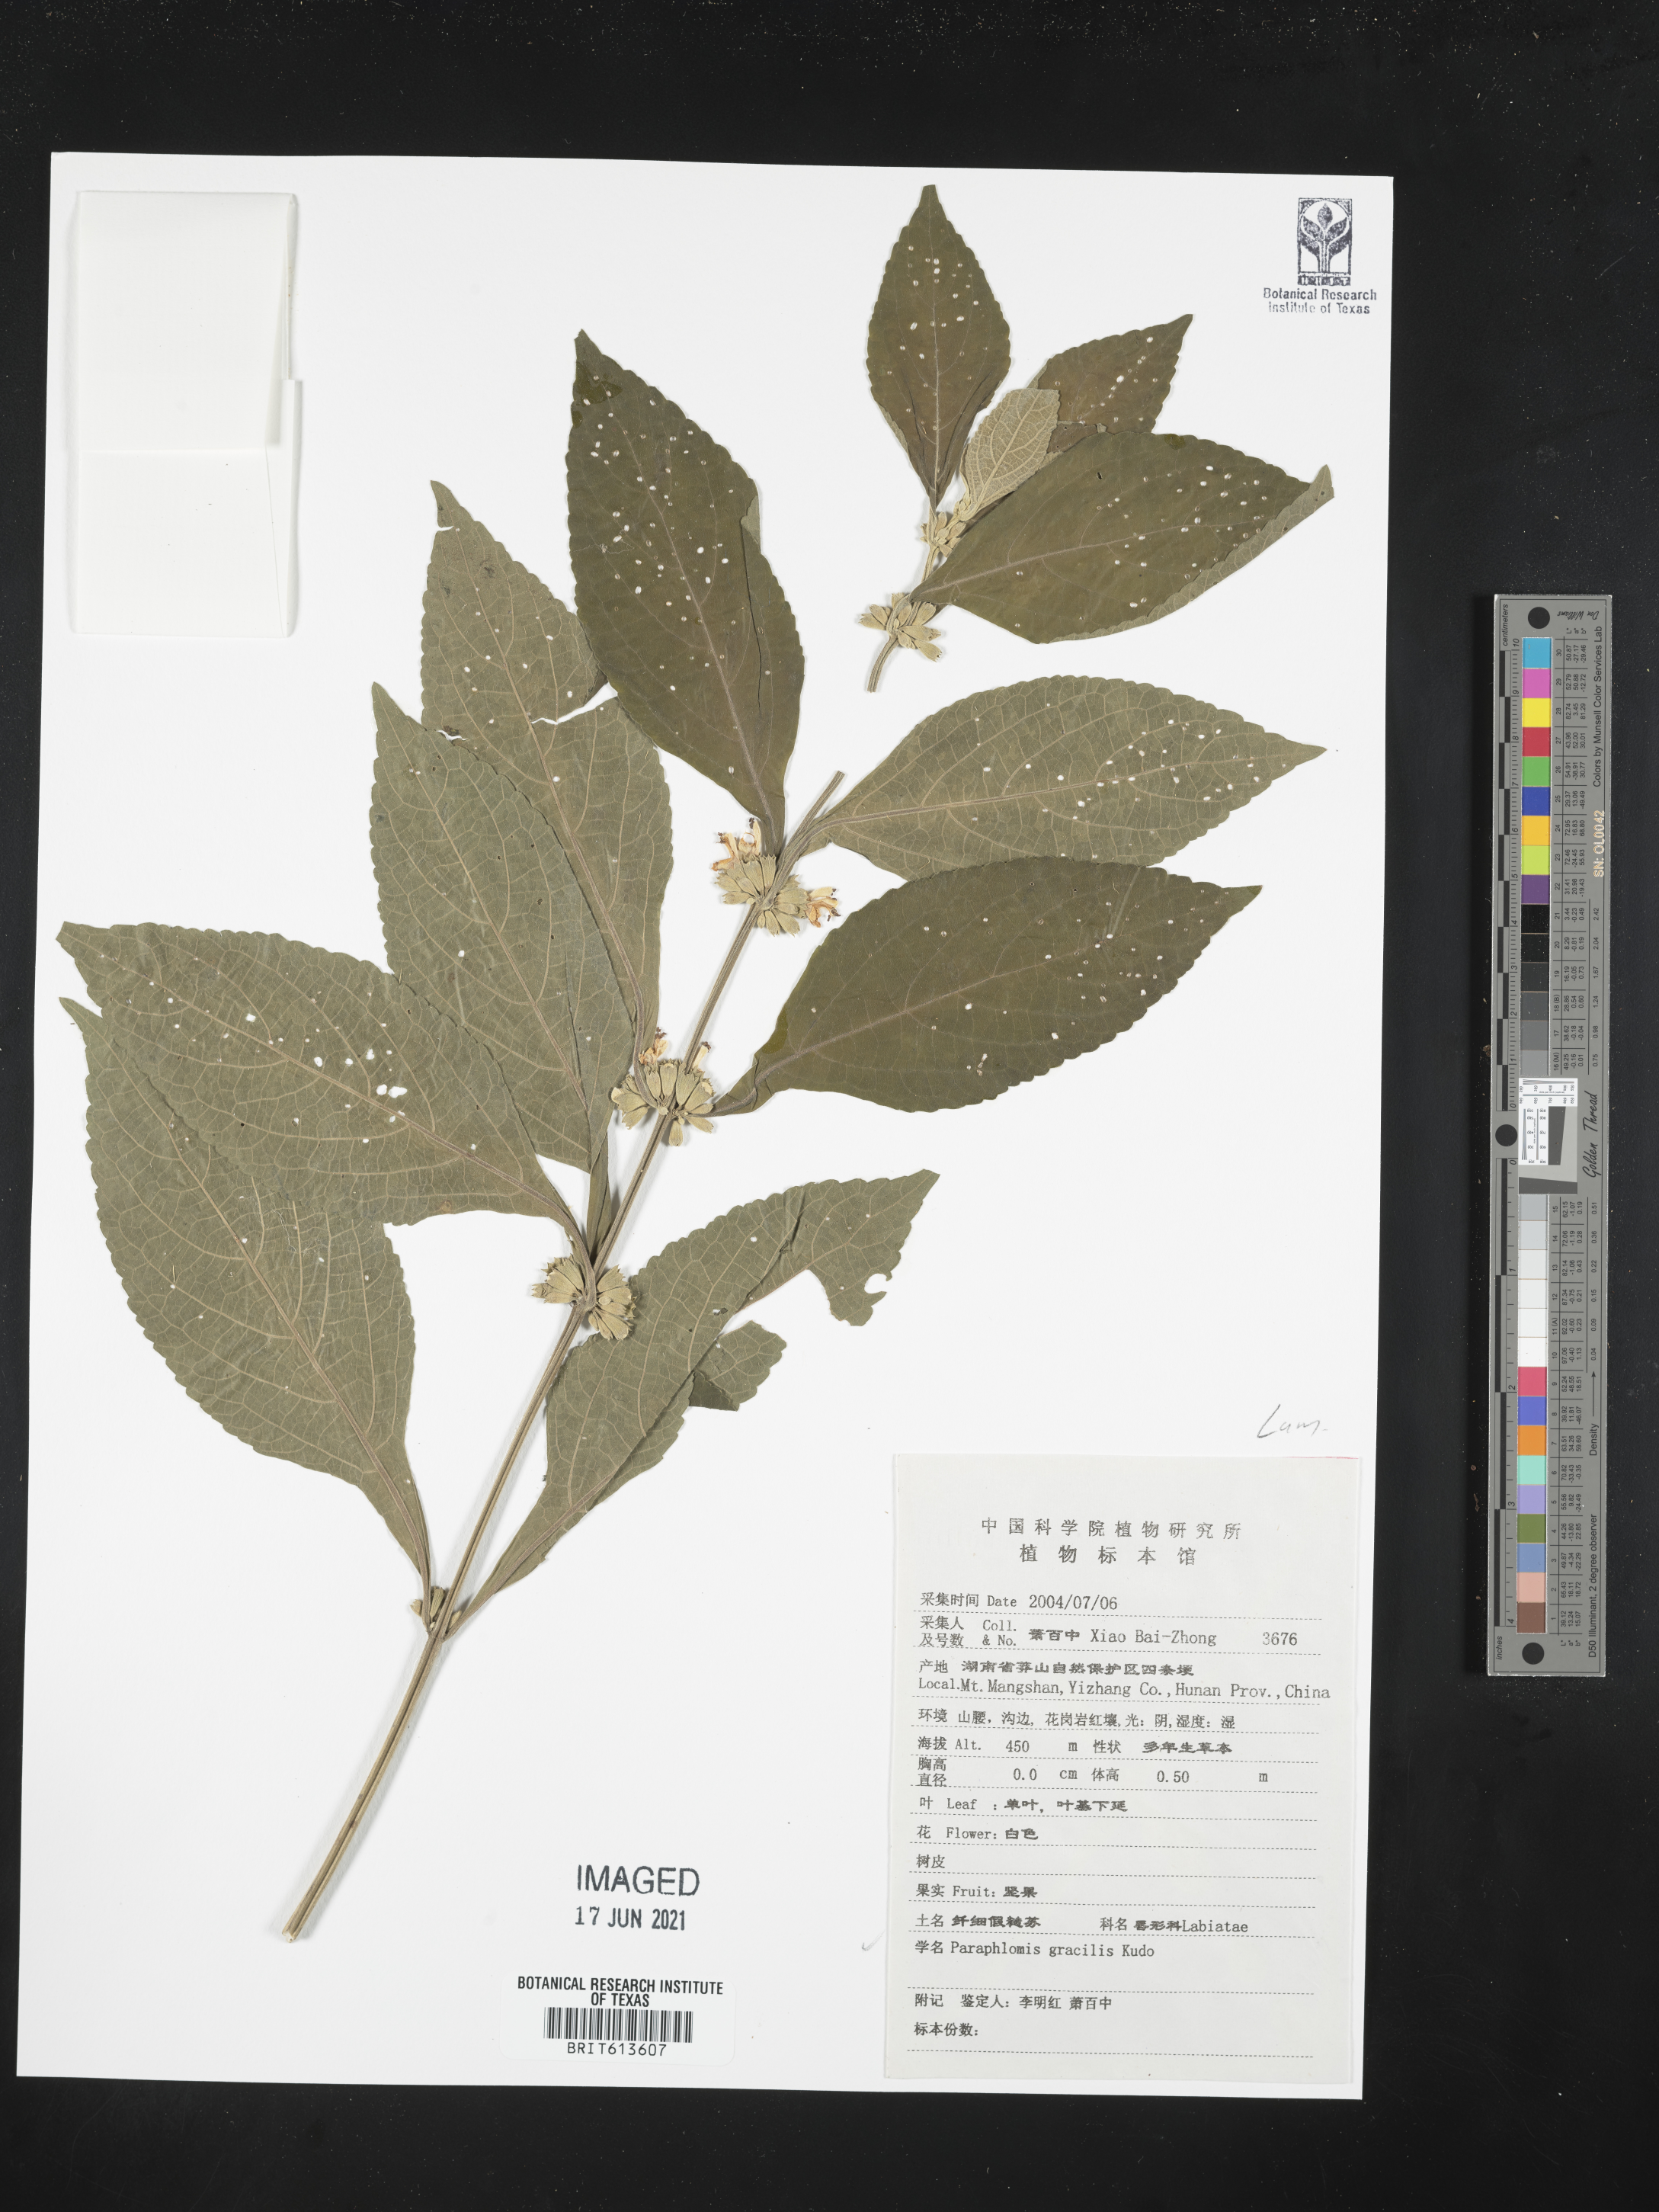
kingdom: Plantae
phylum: Tracheophyta
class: Magnoliopsida
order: Lamiales
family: Lamiaceae
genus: Paraphlomis
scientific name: Paraphlomis formosana
